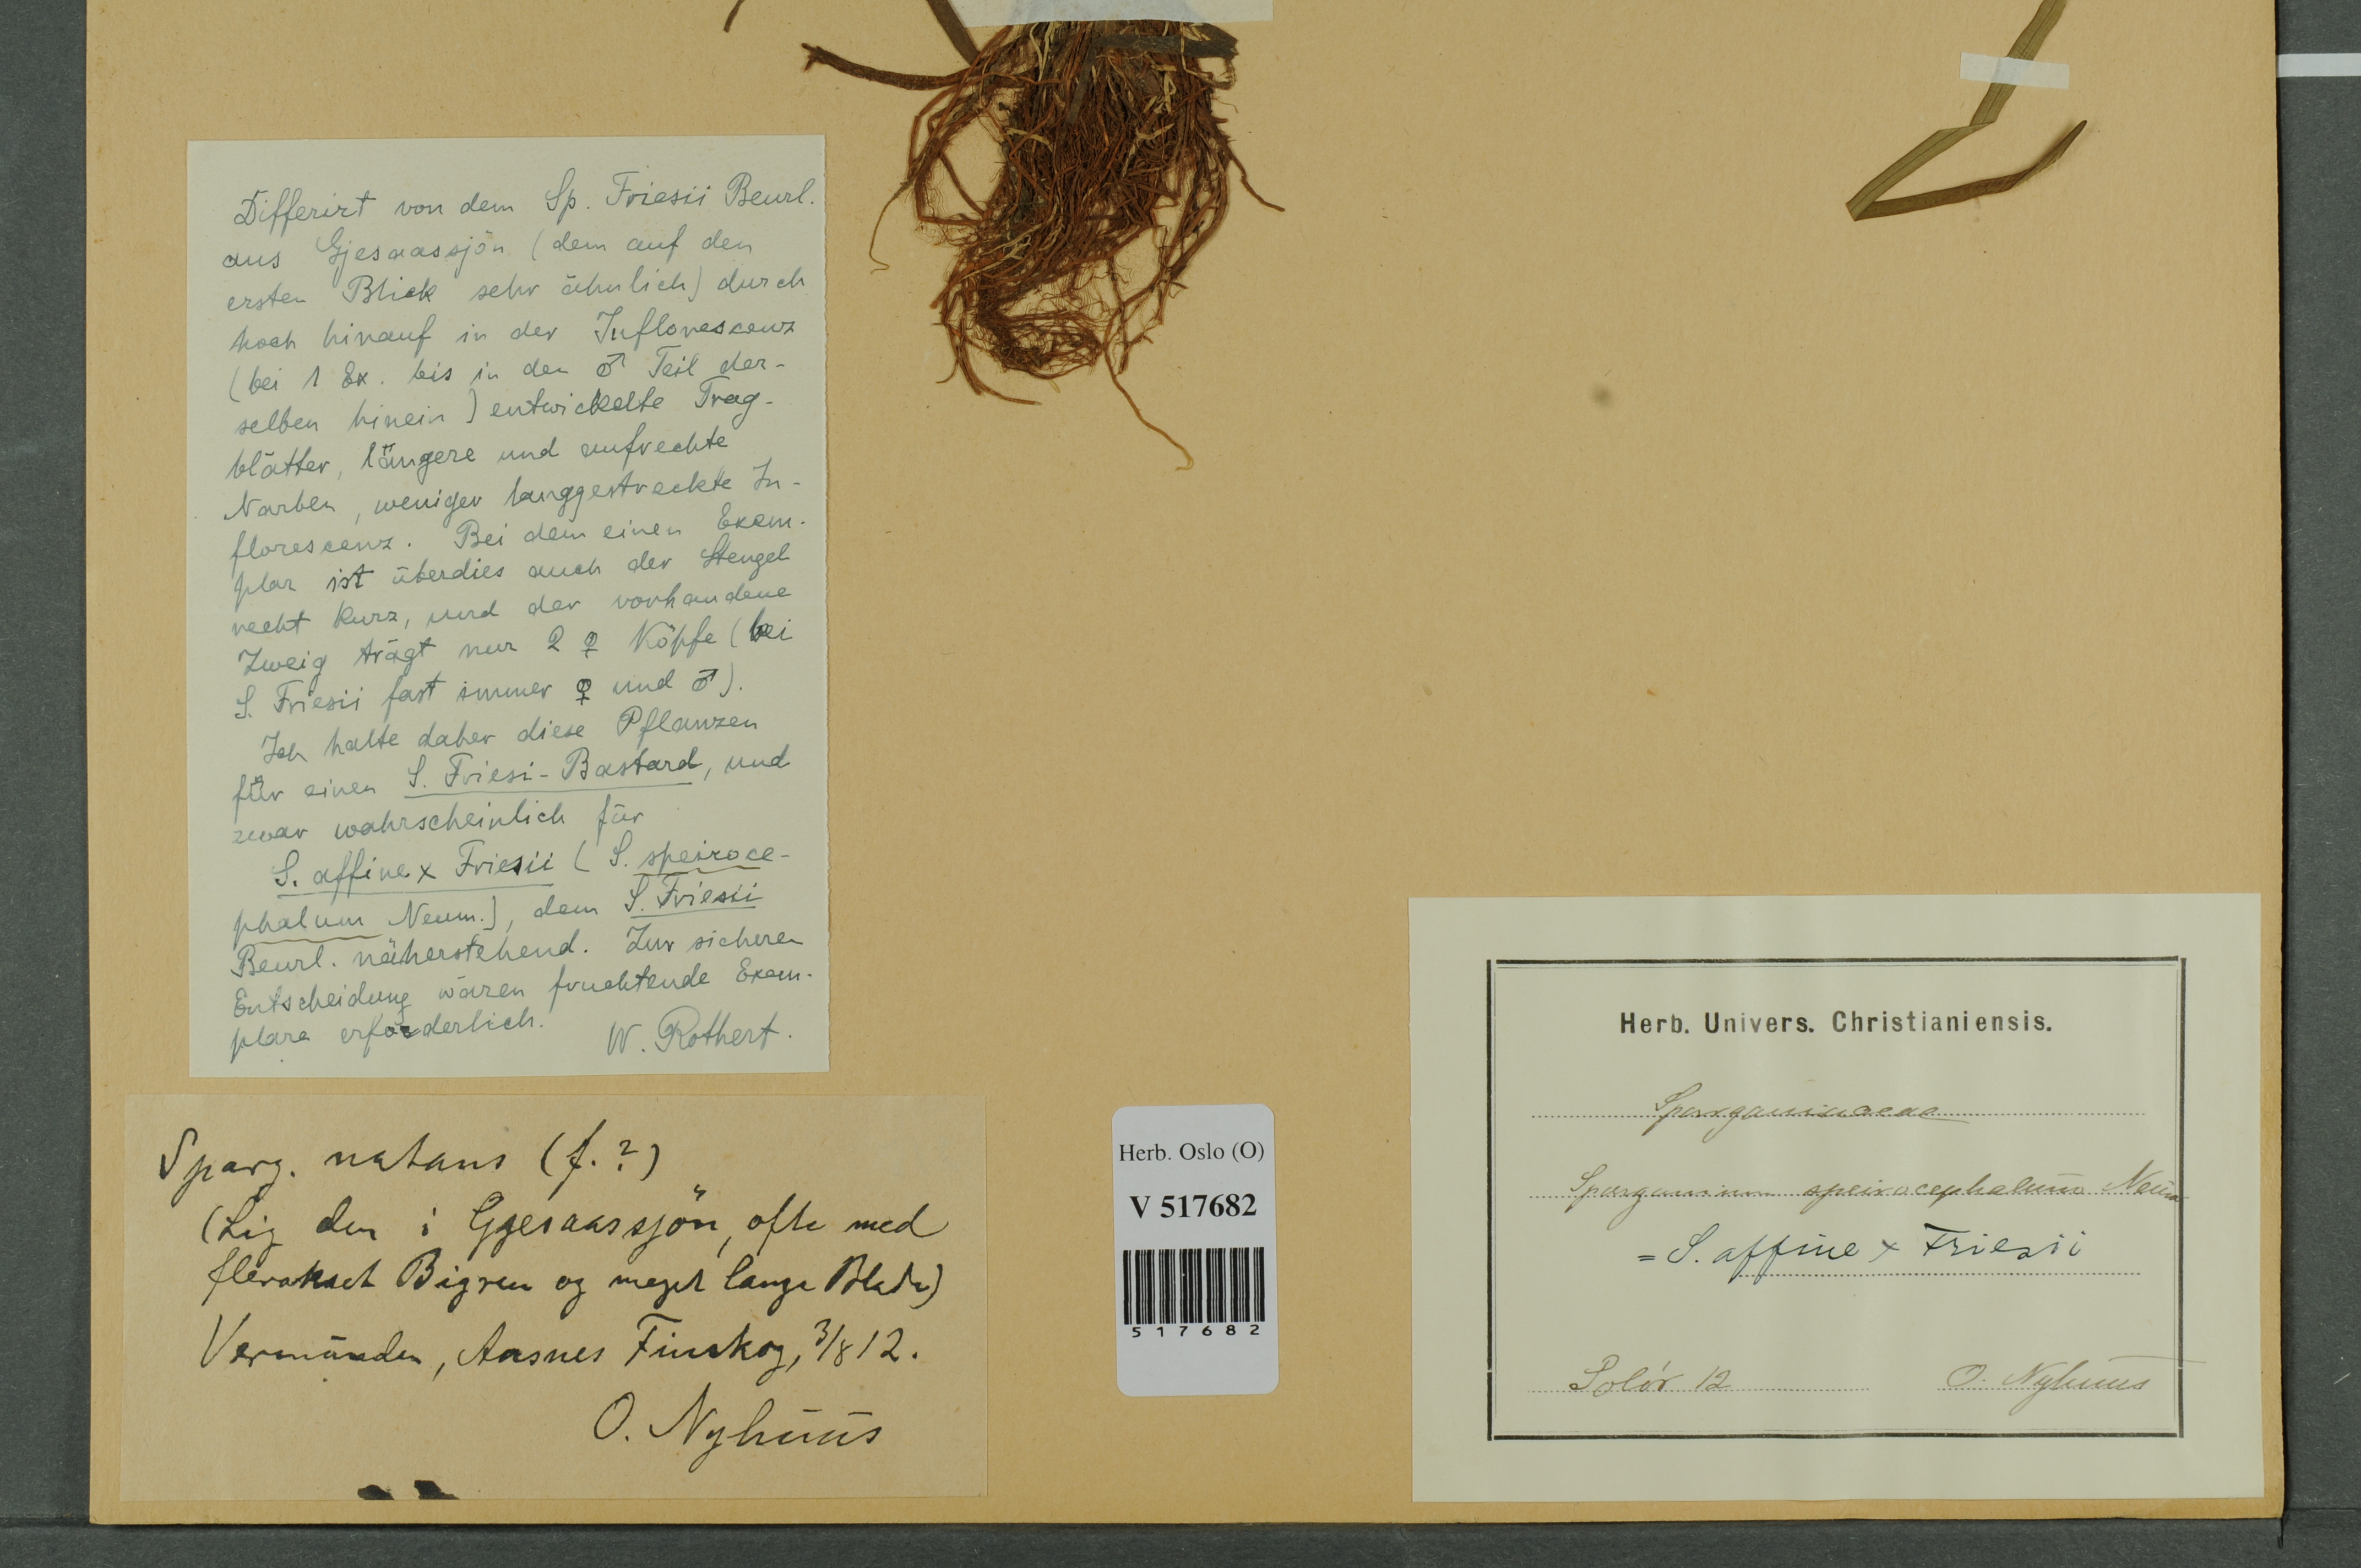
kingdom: Plantae
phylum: Tracheophyta
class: Liliopsida
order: Poales
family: Typhaceae
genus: Sparganium
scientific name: Sparganium
